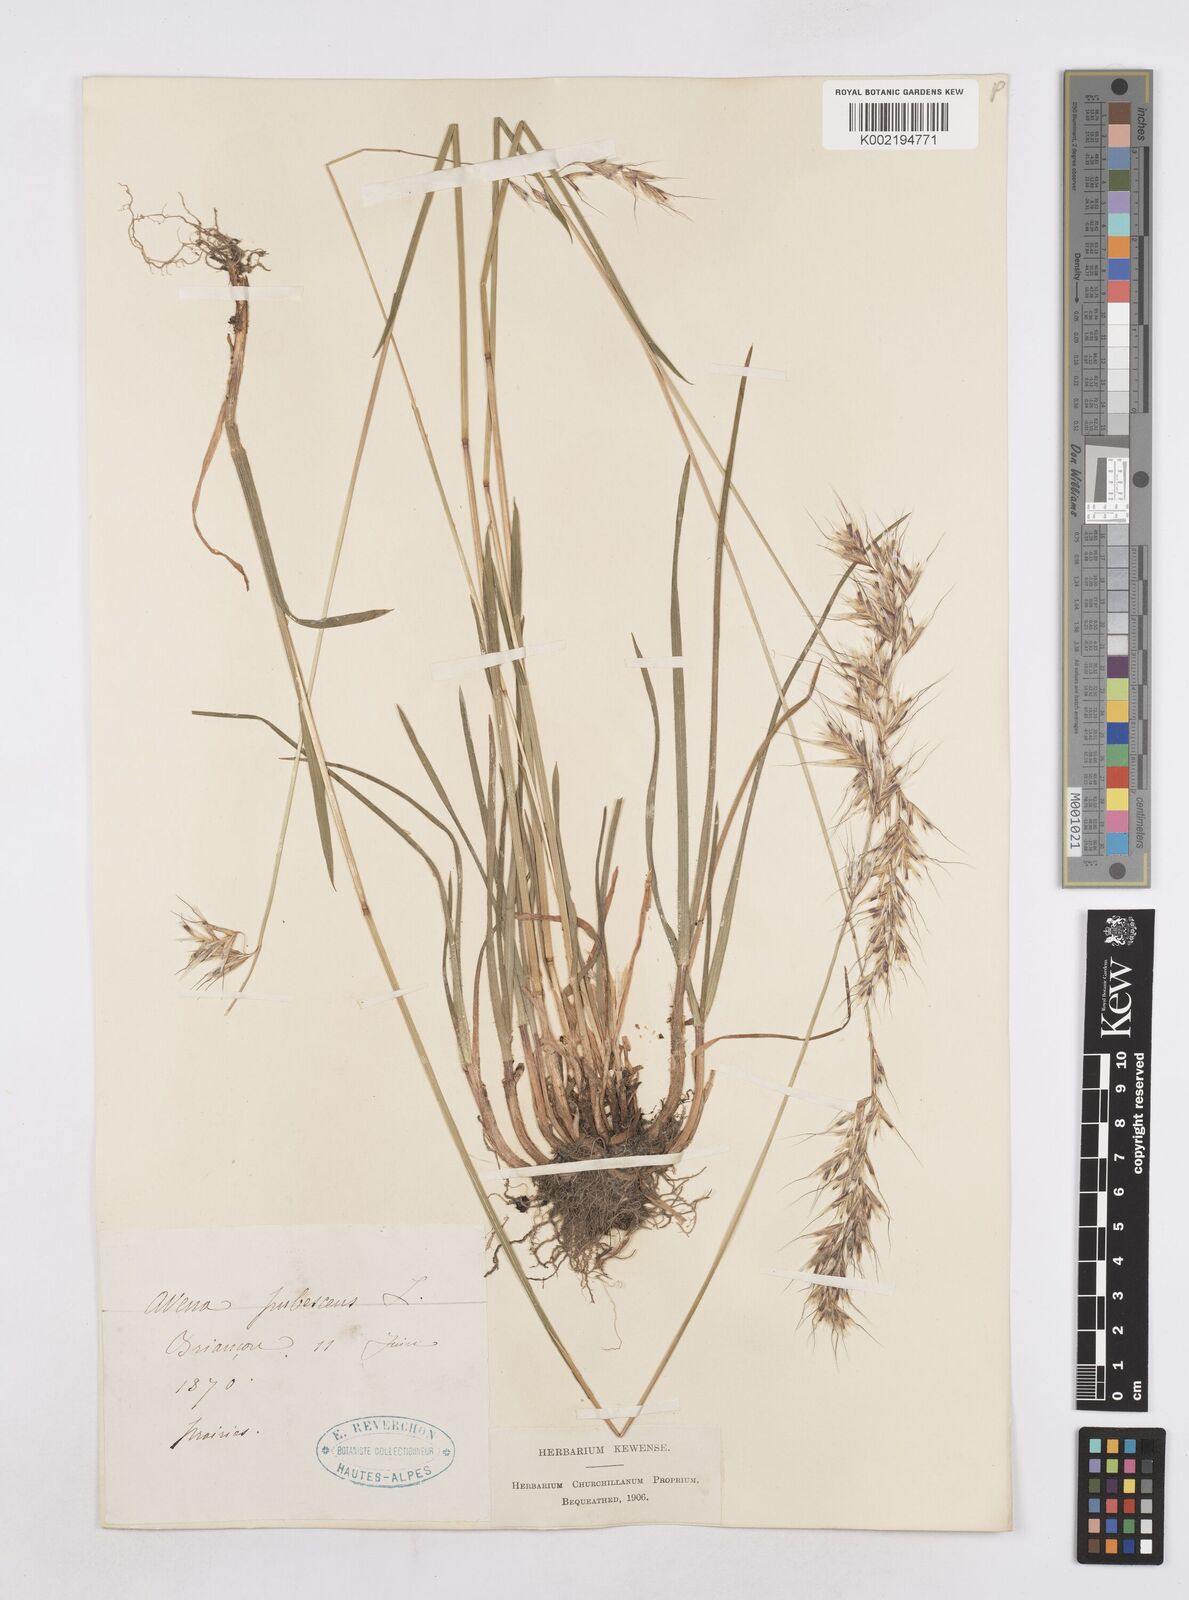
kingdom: Plantae
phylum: Tracheophyta
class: Liliopsida
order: Poales
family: Poaceae
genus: Avenula
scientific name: Avenula pubescens
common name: Downy alpine oatgrass
